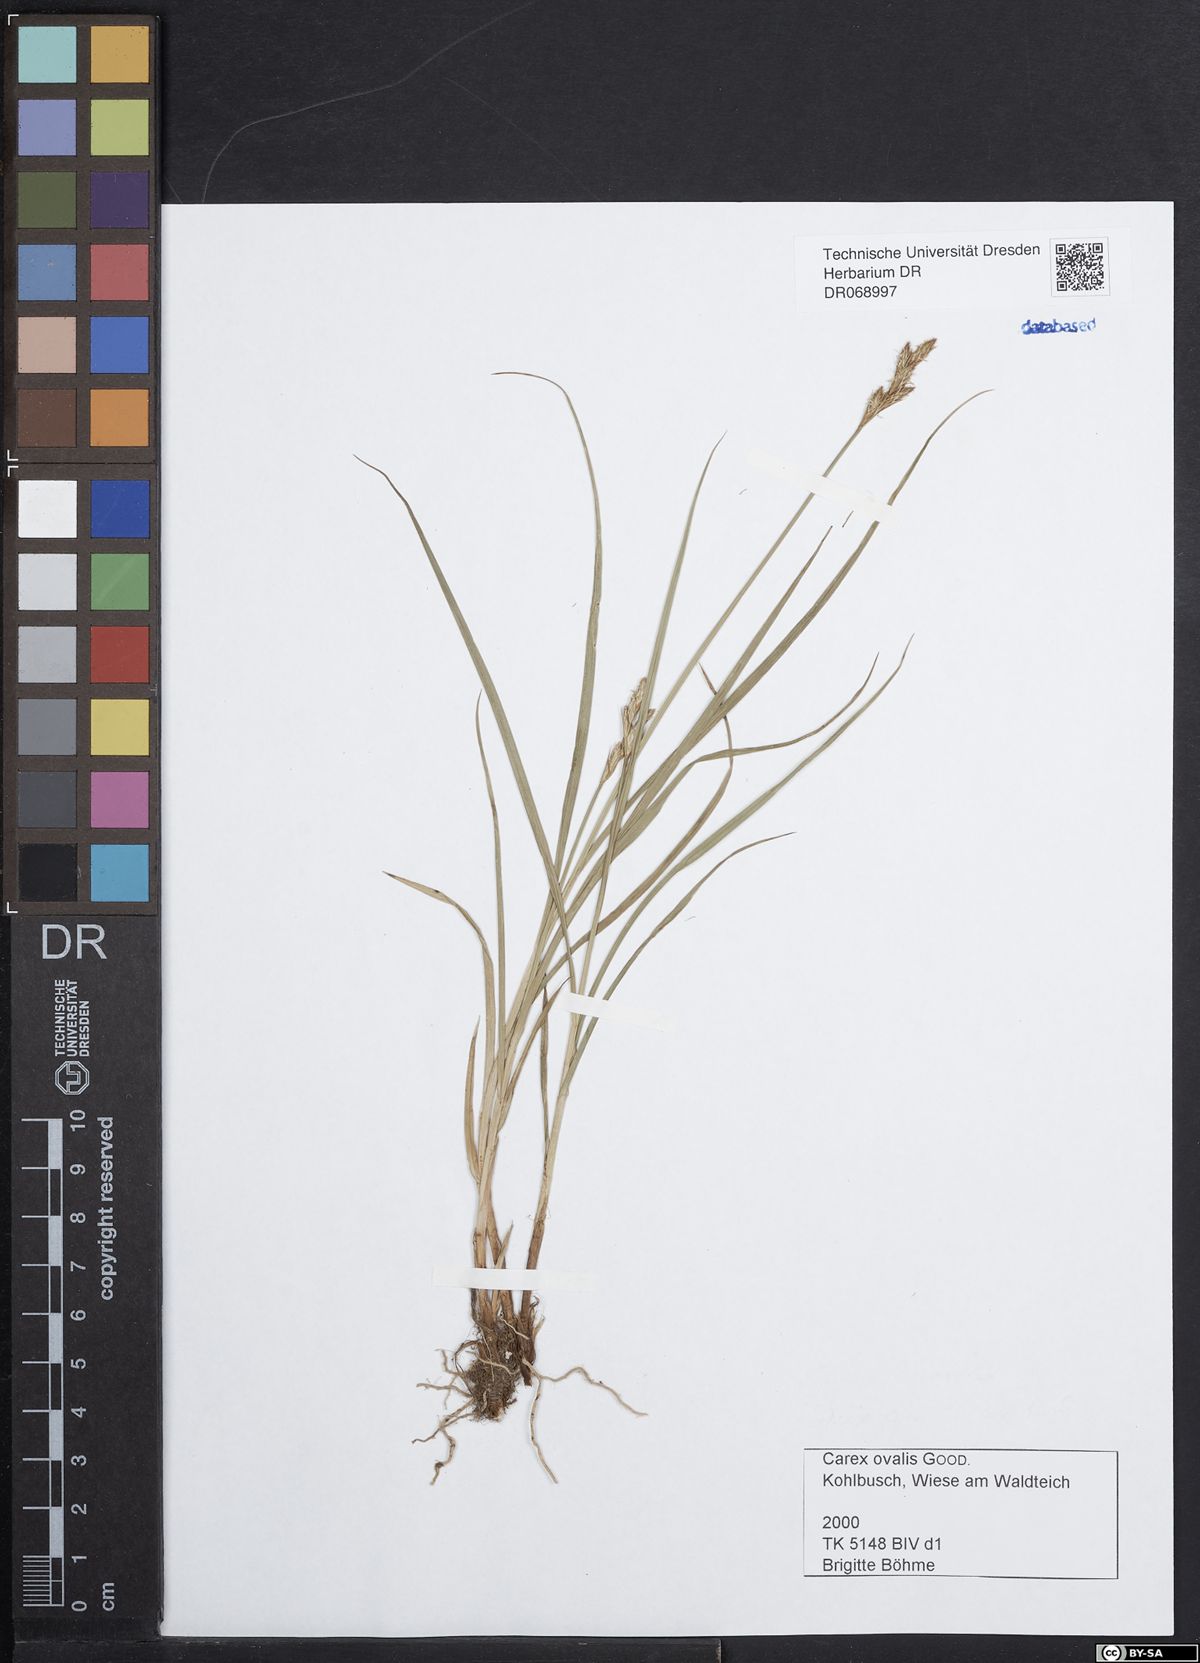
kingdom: Plantae
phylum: Tracheophyta
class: Liliopsida
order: Poales
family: Cyperaceae
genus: Carex
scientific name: Carex leporina
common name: Oval sedge
